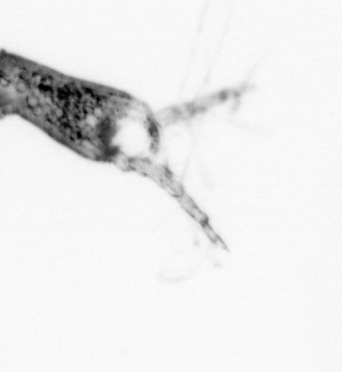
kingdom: Animalia
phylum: Arthropoda
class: Copepoda
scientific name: Copepoda
